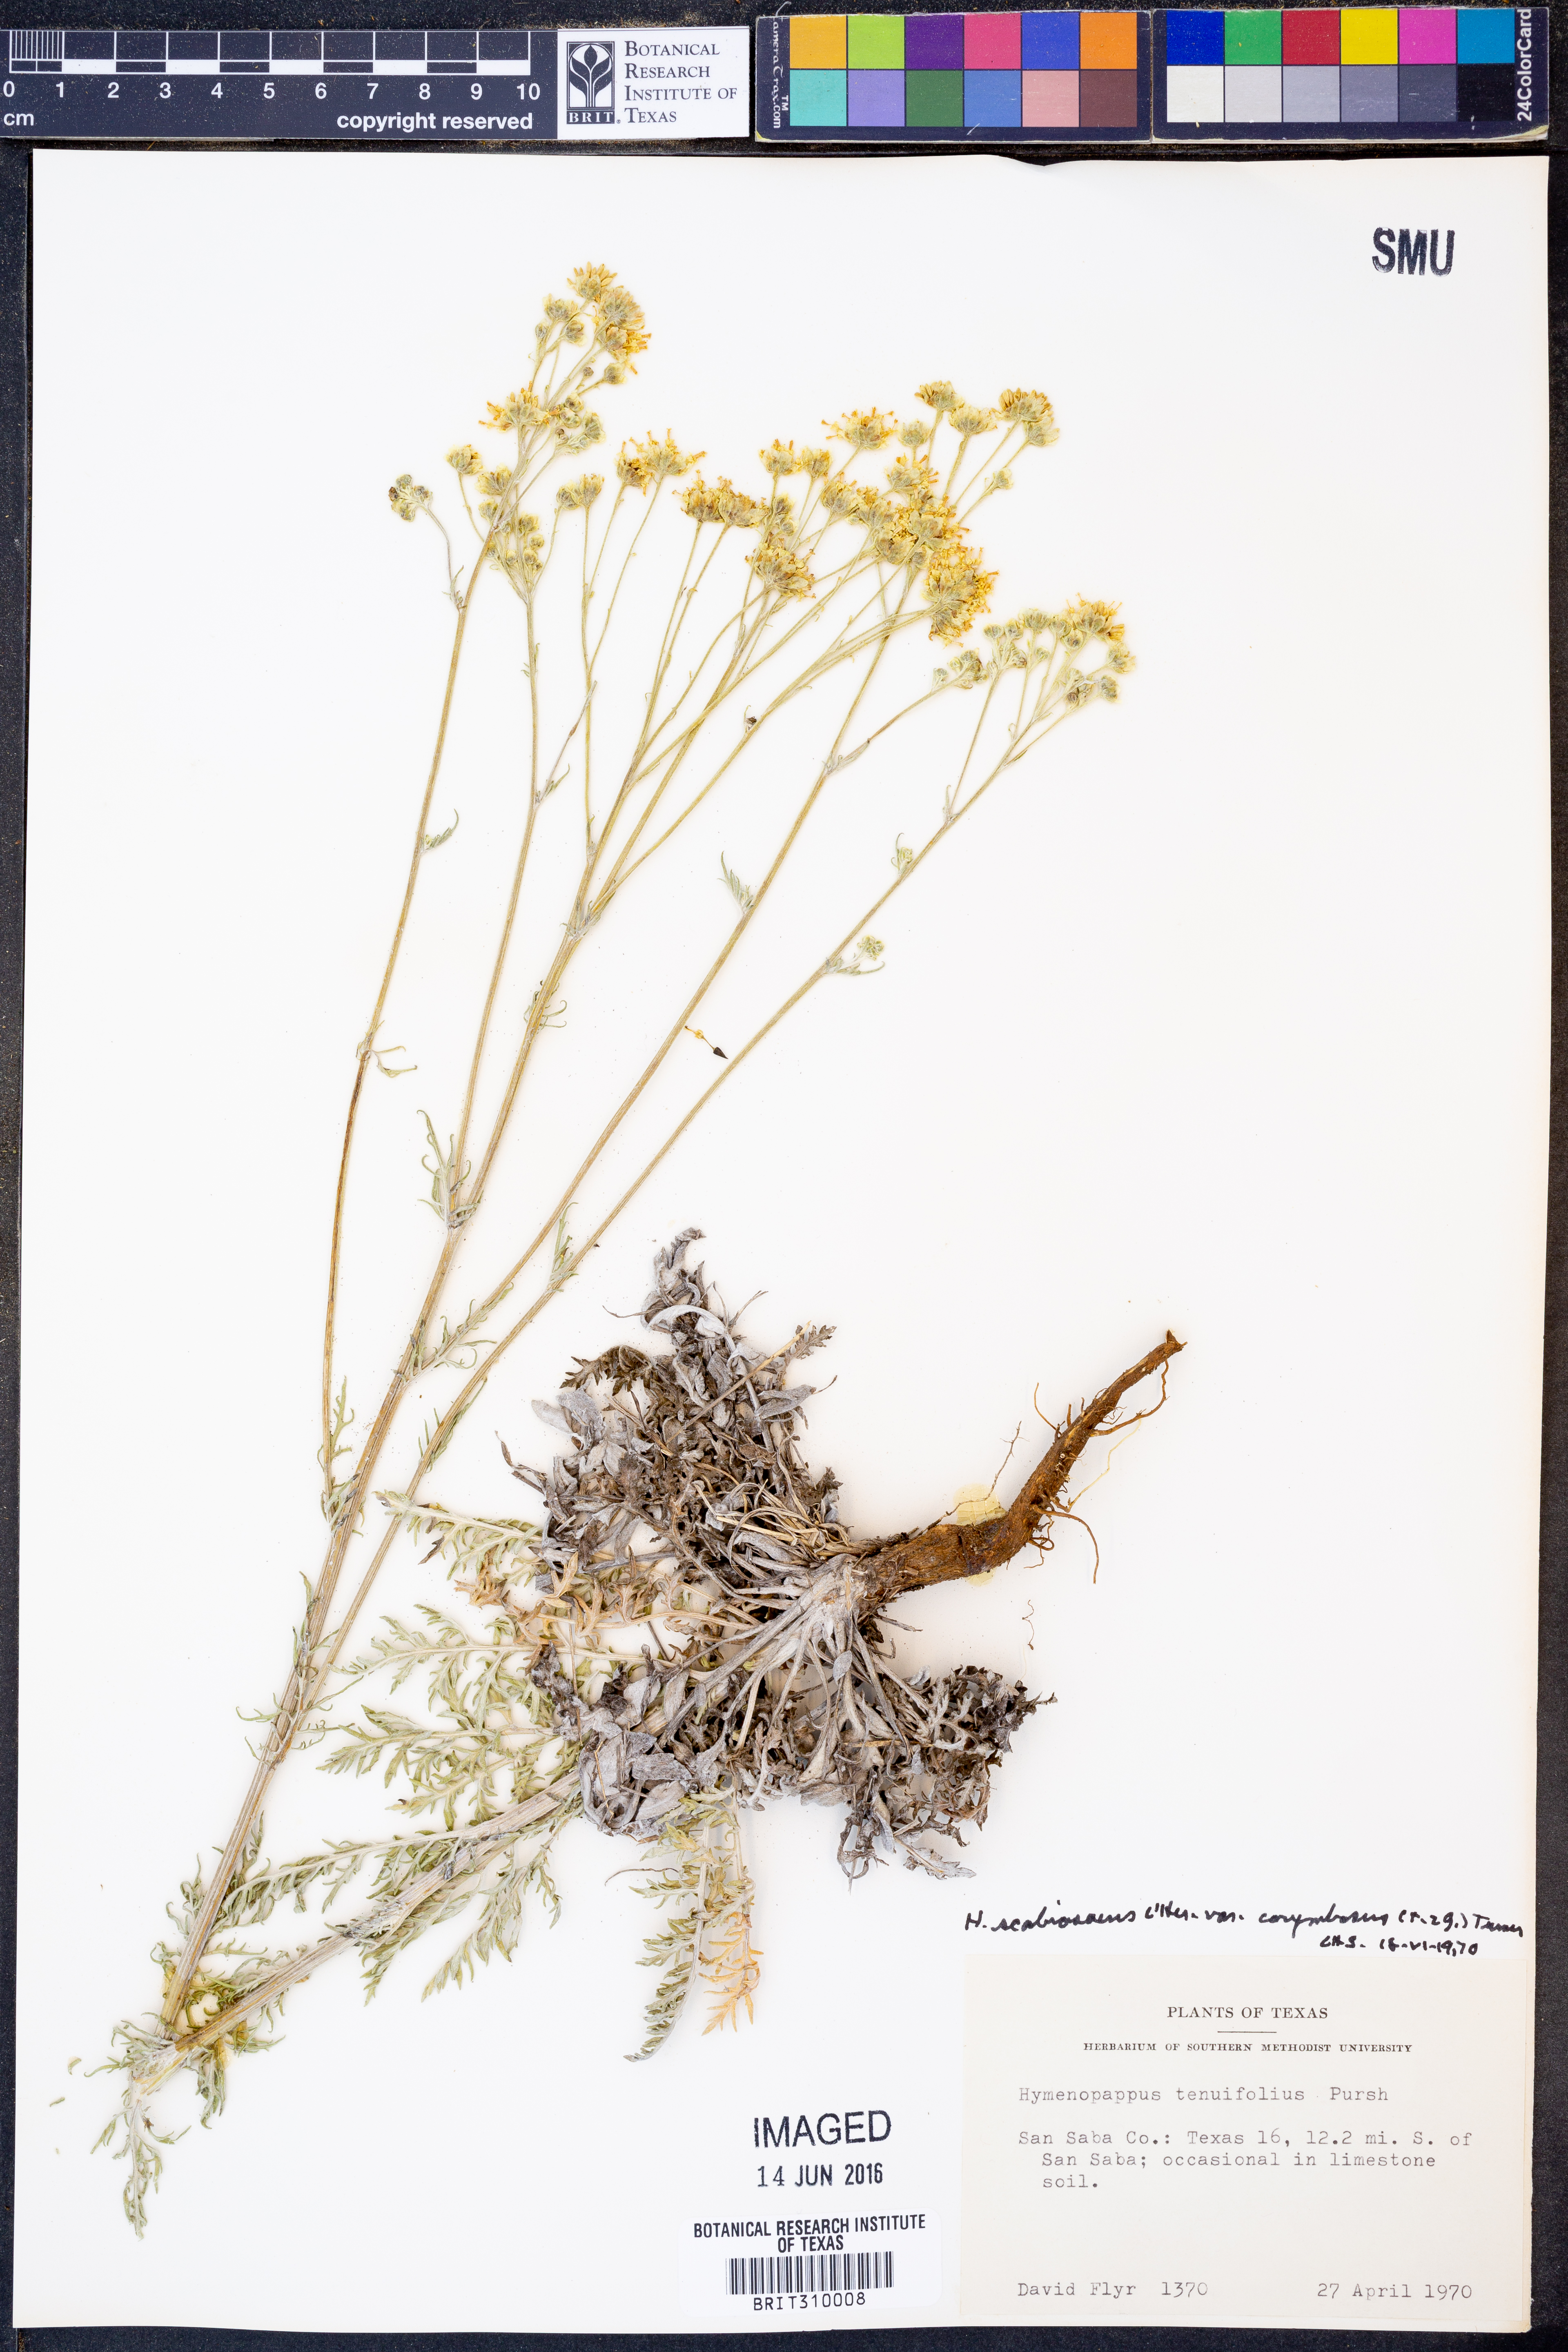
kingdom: Plantae
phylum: Tracheophyta
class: Magnoliopsida
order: Asterales
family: Asteraceae
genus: Hymenopappus
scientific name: Hymenopappus scabiosaeus
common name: Carolina woollywhite
